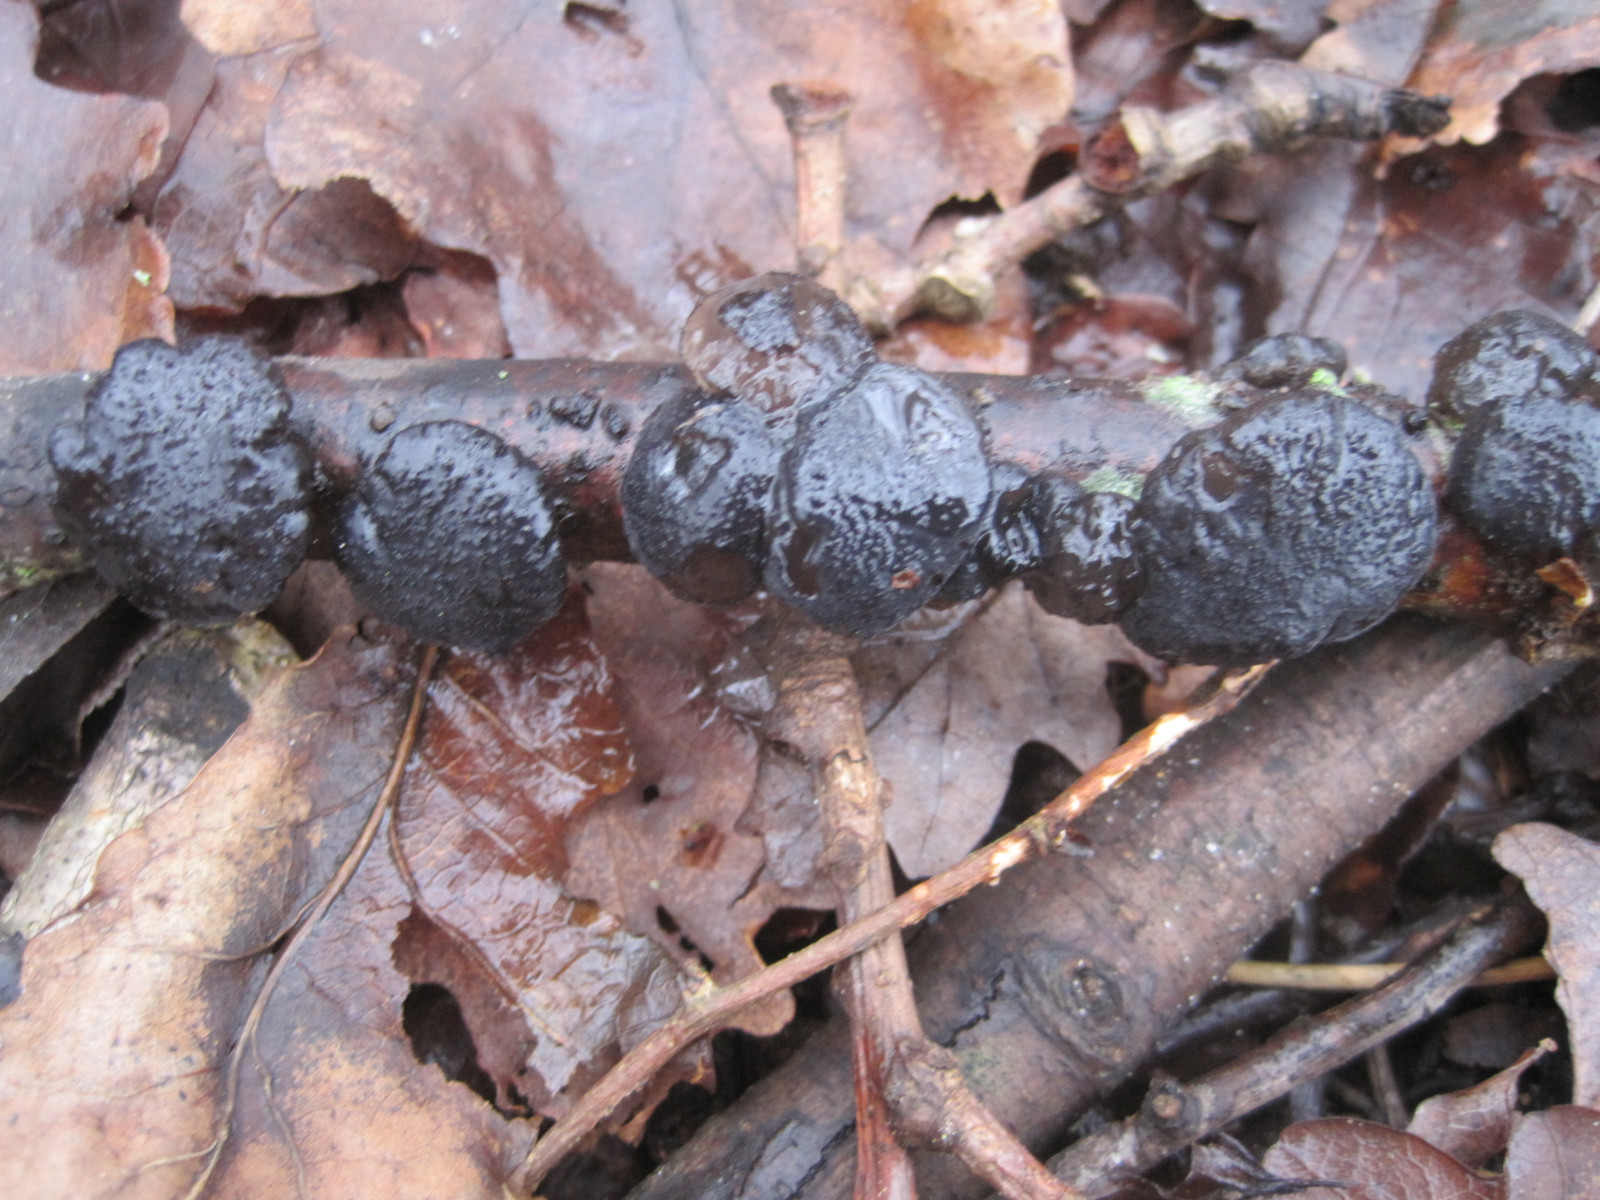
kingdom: Fungi
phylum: Basidiomycota
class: Agaricomycetes
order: Auriculariales
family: Auriculariaceae
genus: Exidia
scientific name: Exidia glandulosa
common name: ege-bævretop
